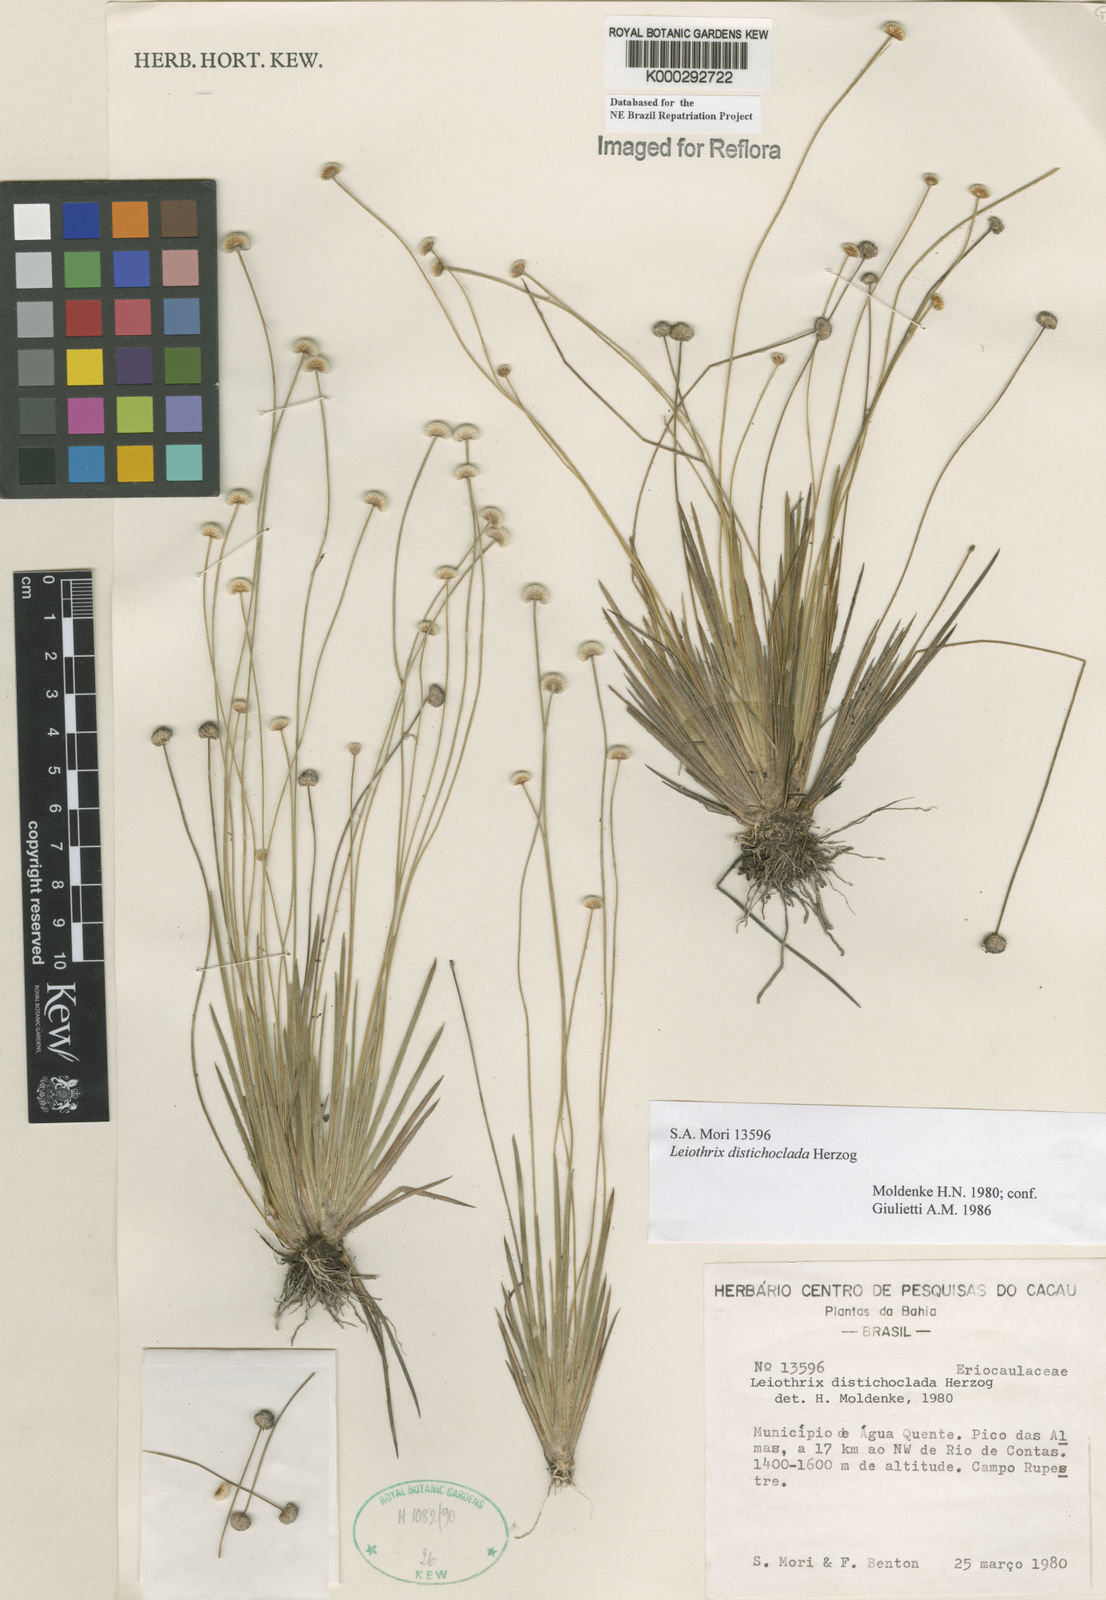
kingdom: Plantae
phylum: Tracheophyta
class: Liliopsida
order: Poales
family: Eriocaulaceae
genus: Leiothrix
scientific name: Leiothrix distichoclada
